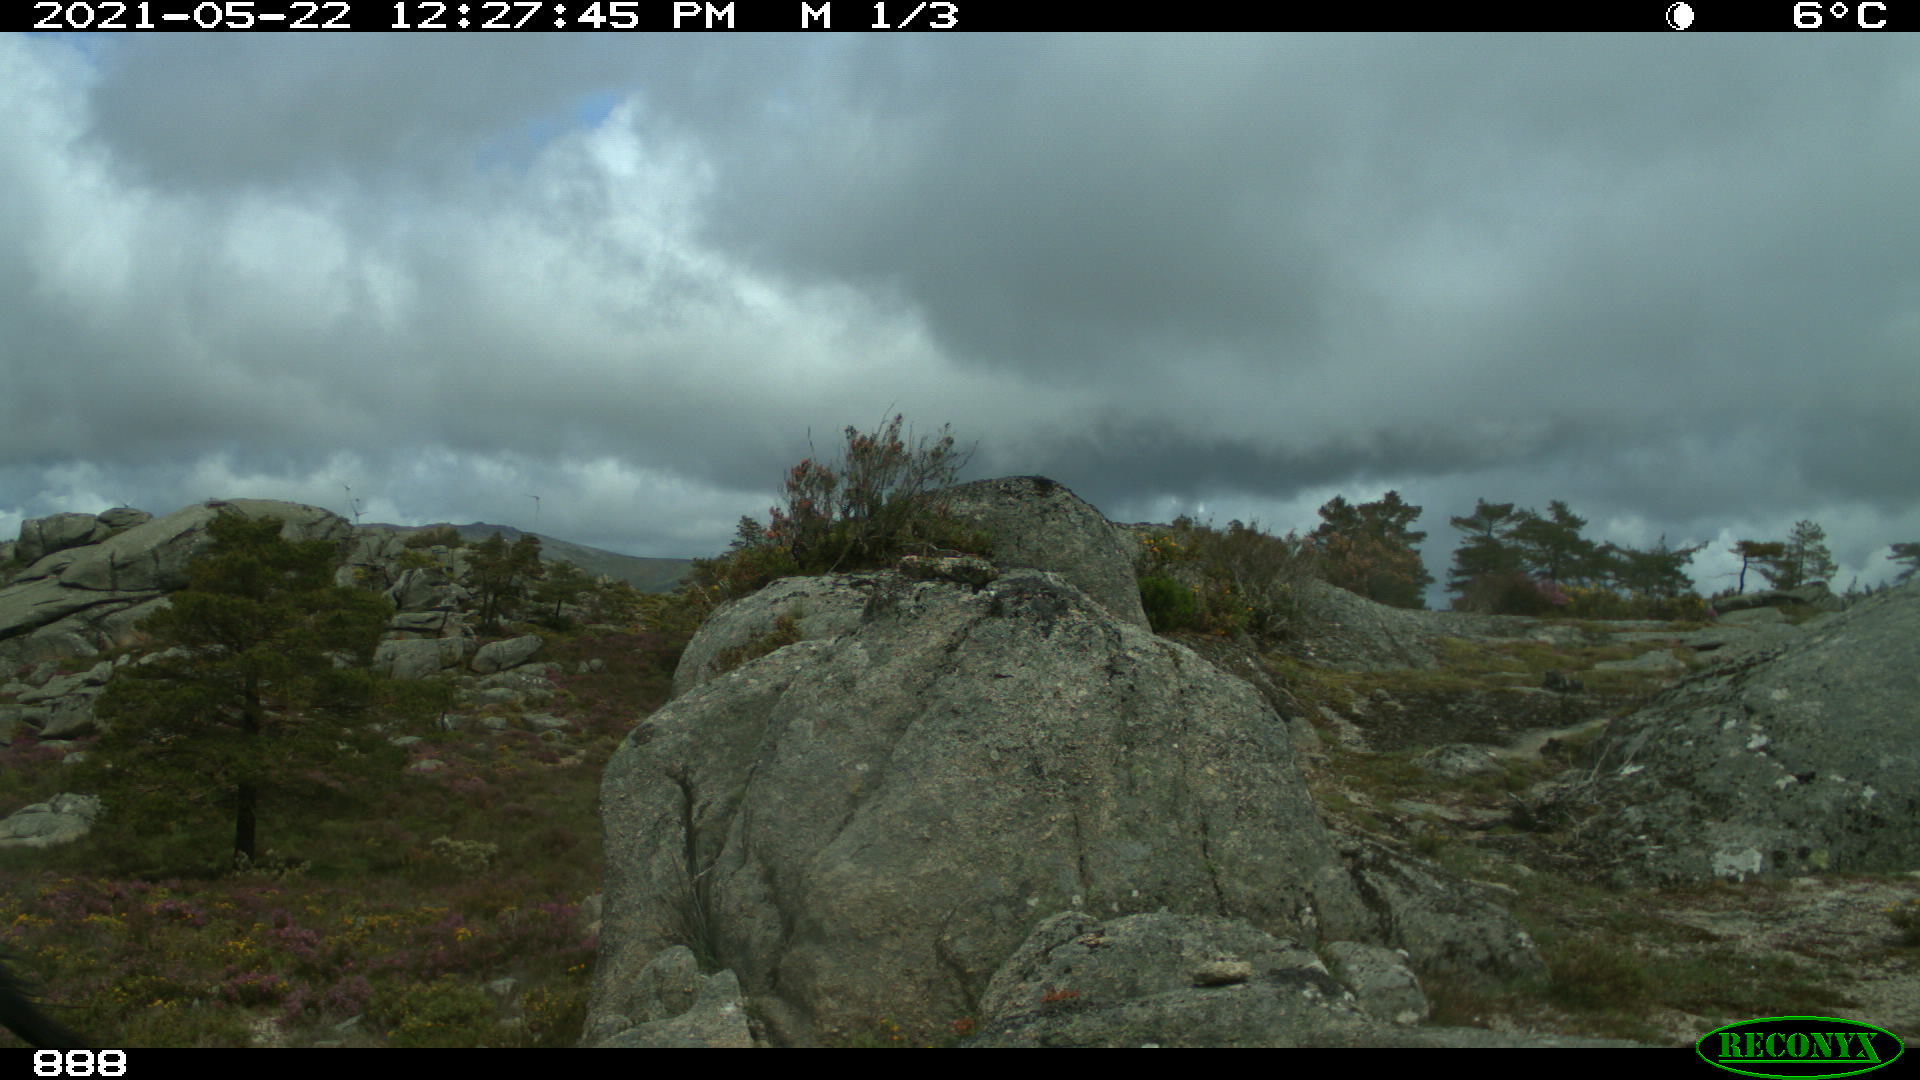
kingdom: Animalia
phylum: Chordata
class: Mammalia
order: Perissodactyla
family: Equidae
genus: Equus
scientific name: Equus caballus
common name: Horse
